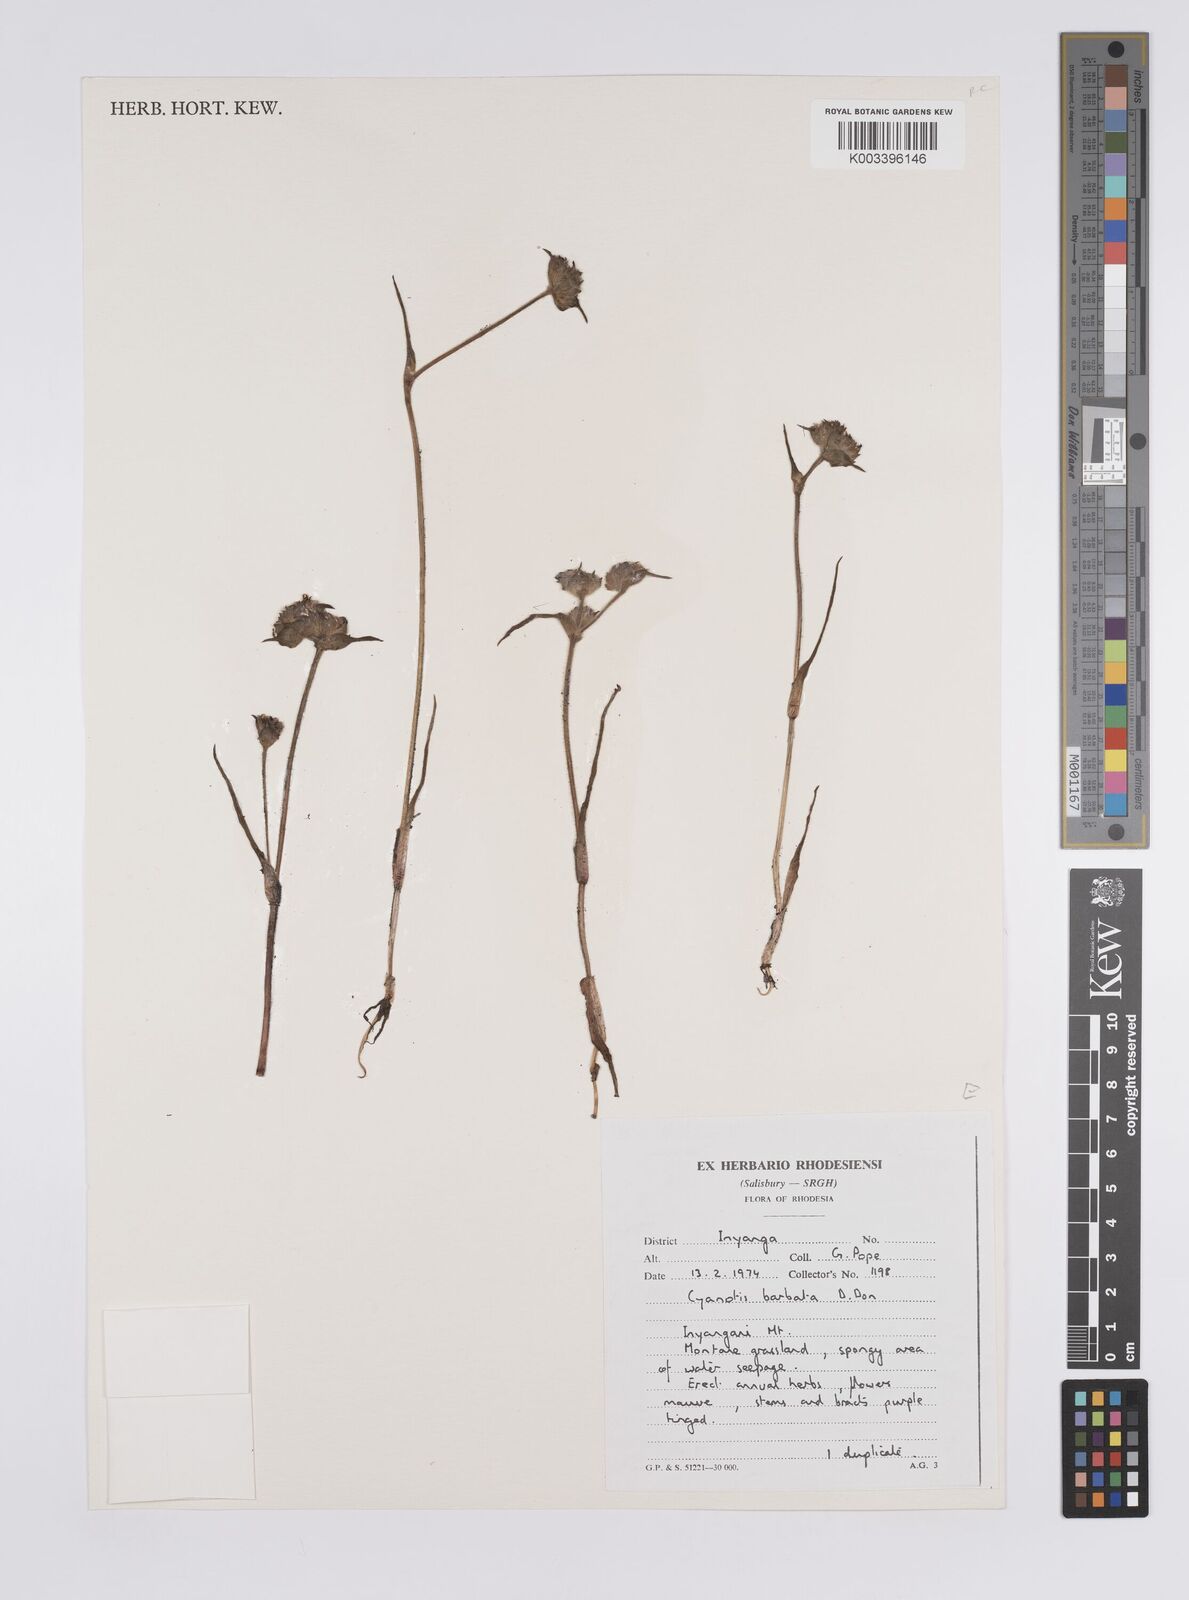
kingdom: Plantae
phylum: Tracheophyta
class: Liliopsida
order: Commelinales
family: Commelinaceae
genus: Cyanotis
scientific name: Cyanotis vaga
